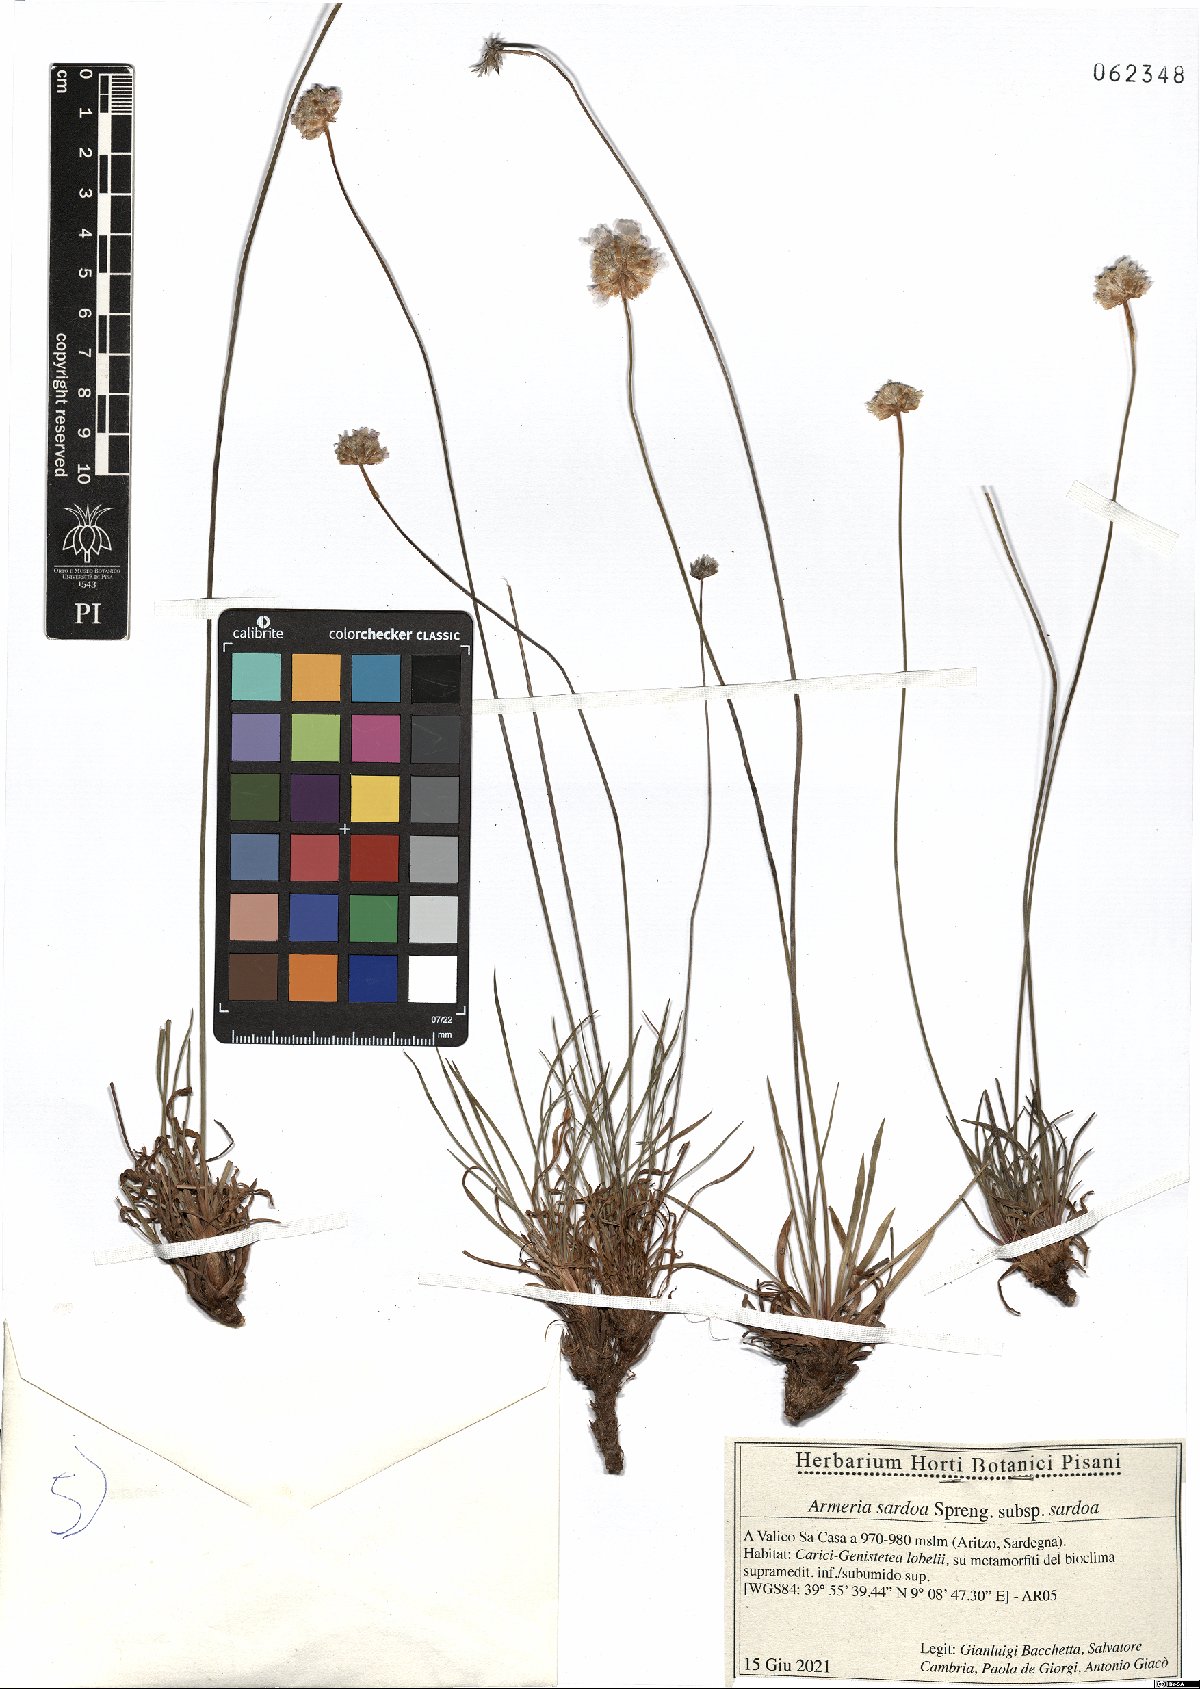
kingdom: Plantae
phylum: Tracheophyta
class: Magnoliopsida
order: Caryophyllales
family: Plumbaginaceae
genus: Armeria
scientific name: Armeria sardoa
